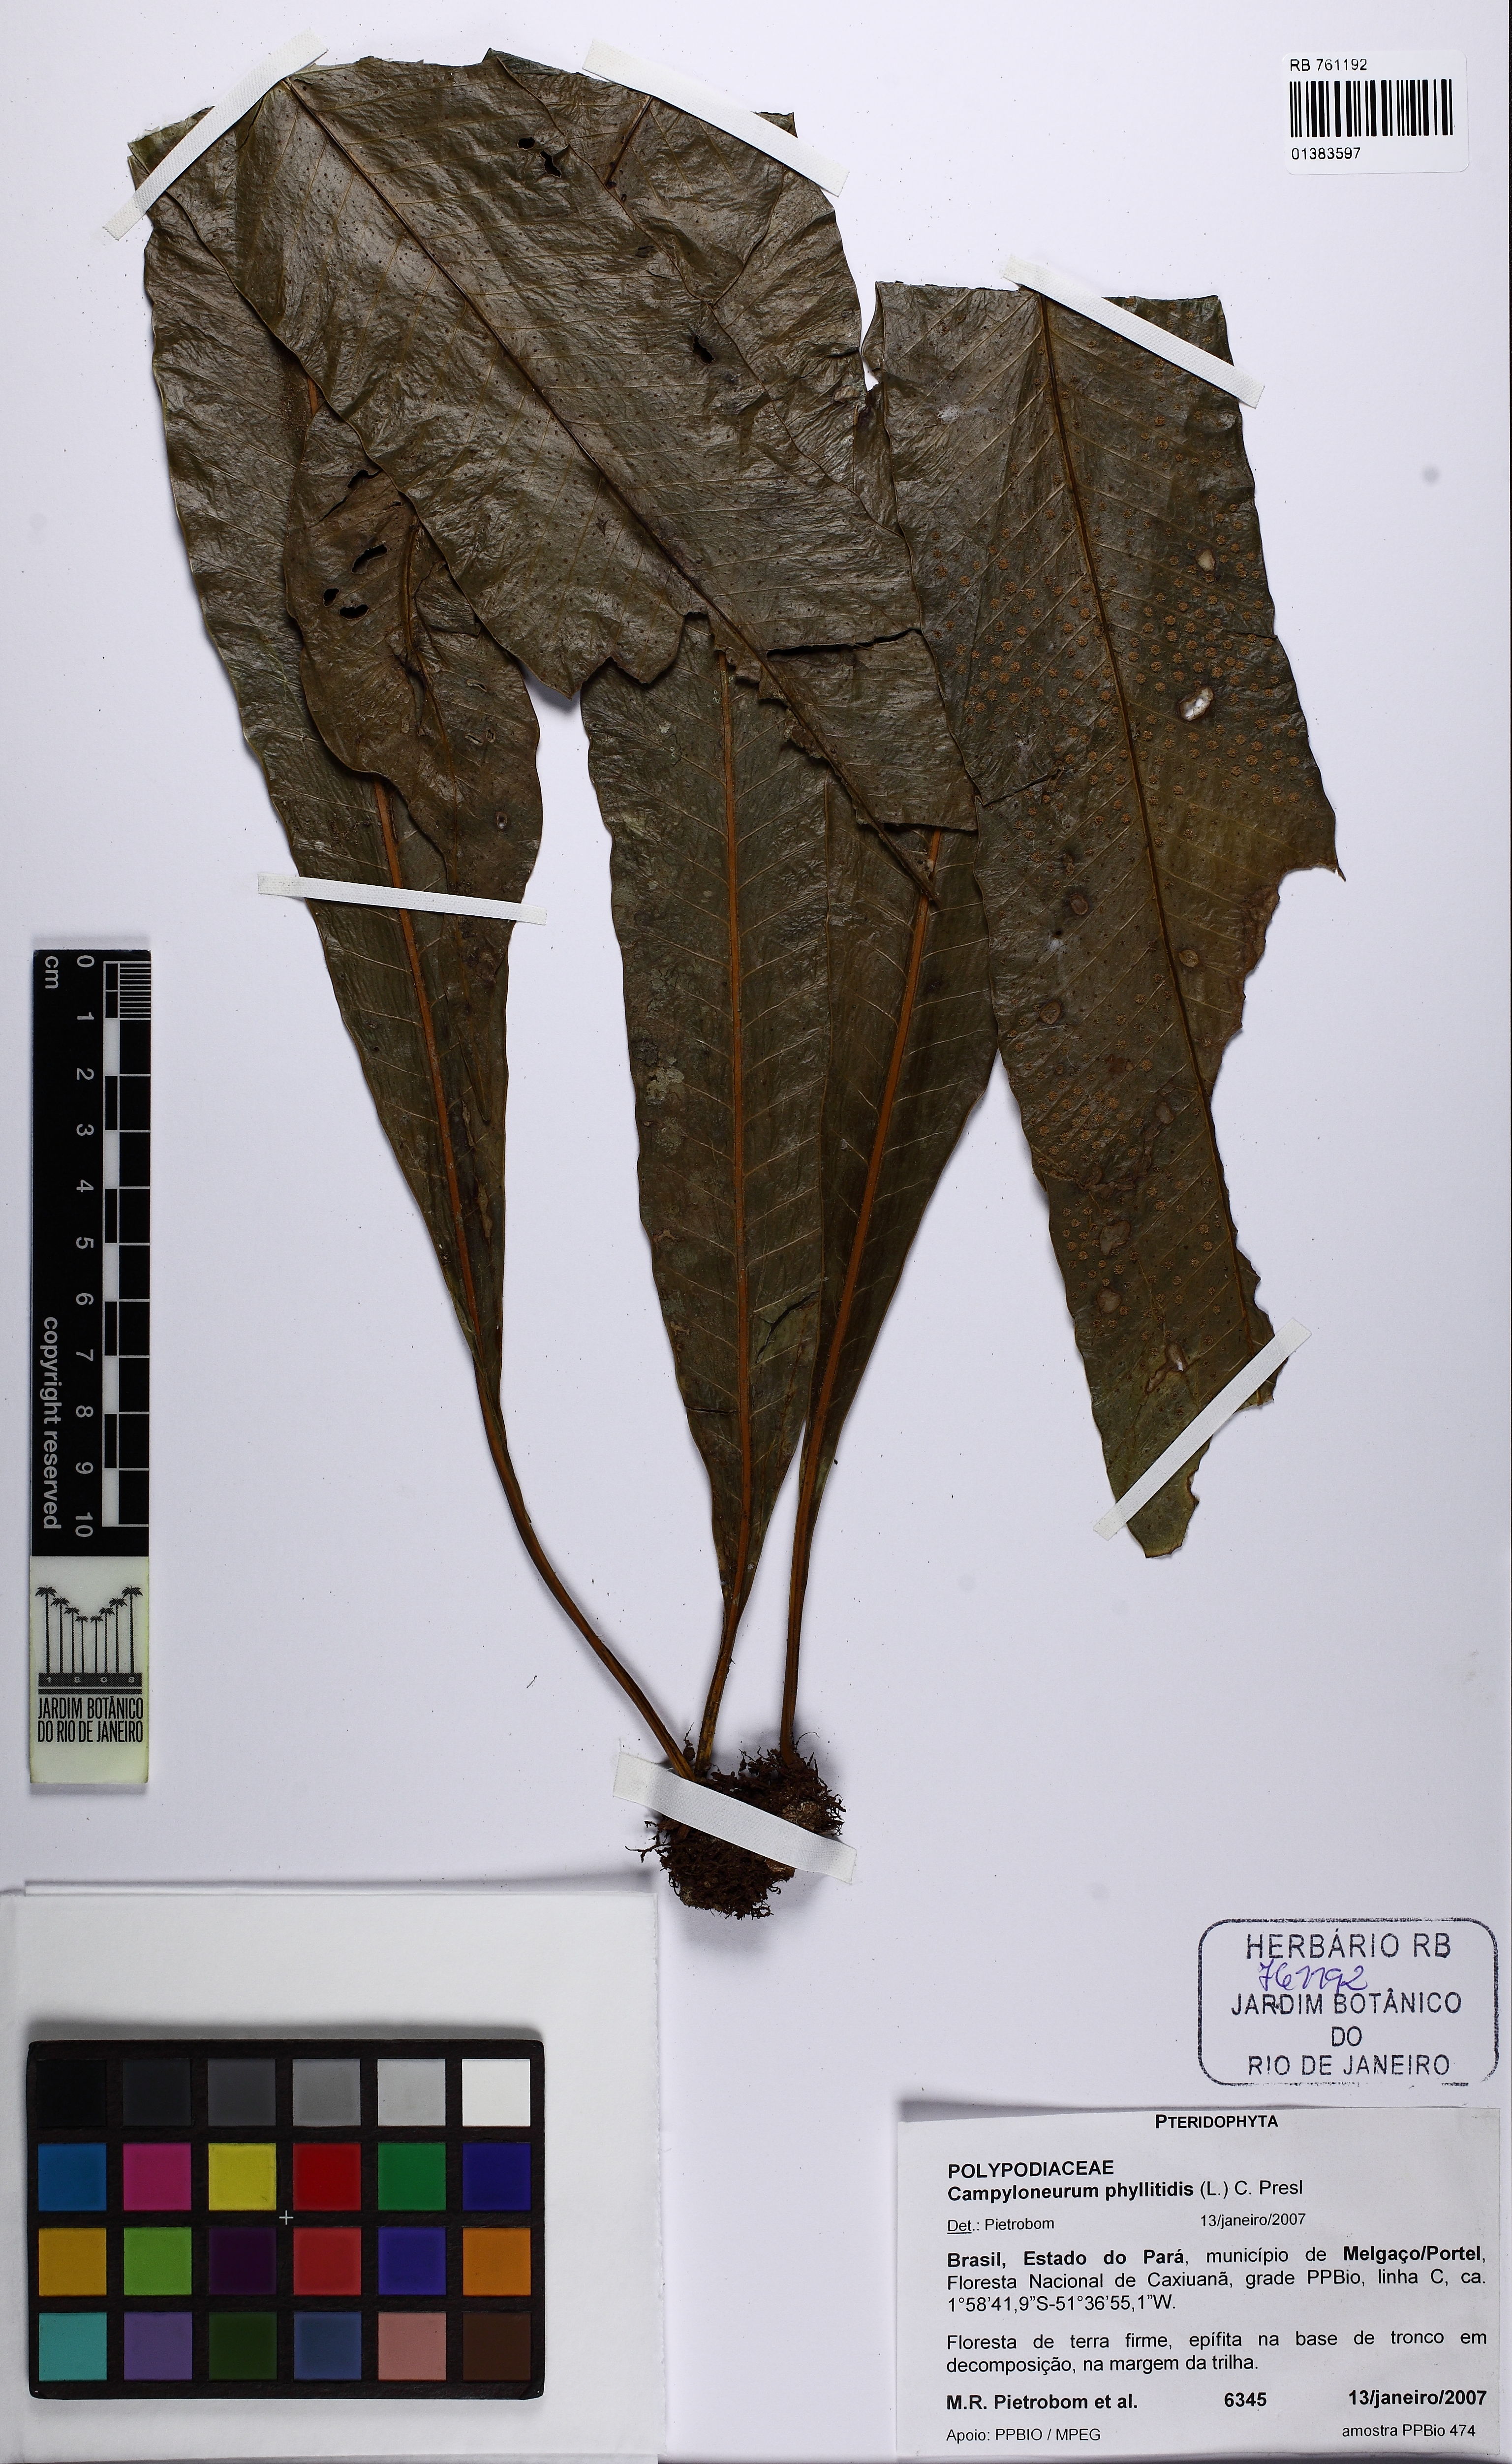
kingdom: Plantae
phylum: Tracheophyta
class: Polypodiopsida
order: Polypodiales
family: Polypodiaceae
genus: Campyloneurum
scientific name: Campyloneurum phyllitidis
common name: Cow-tongue fern
